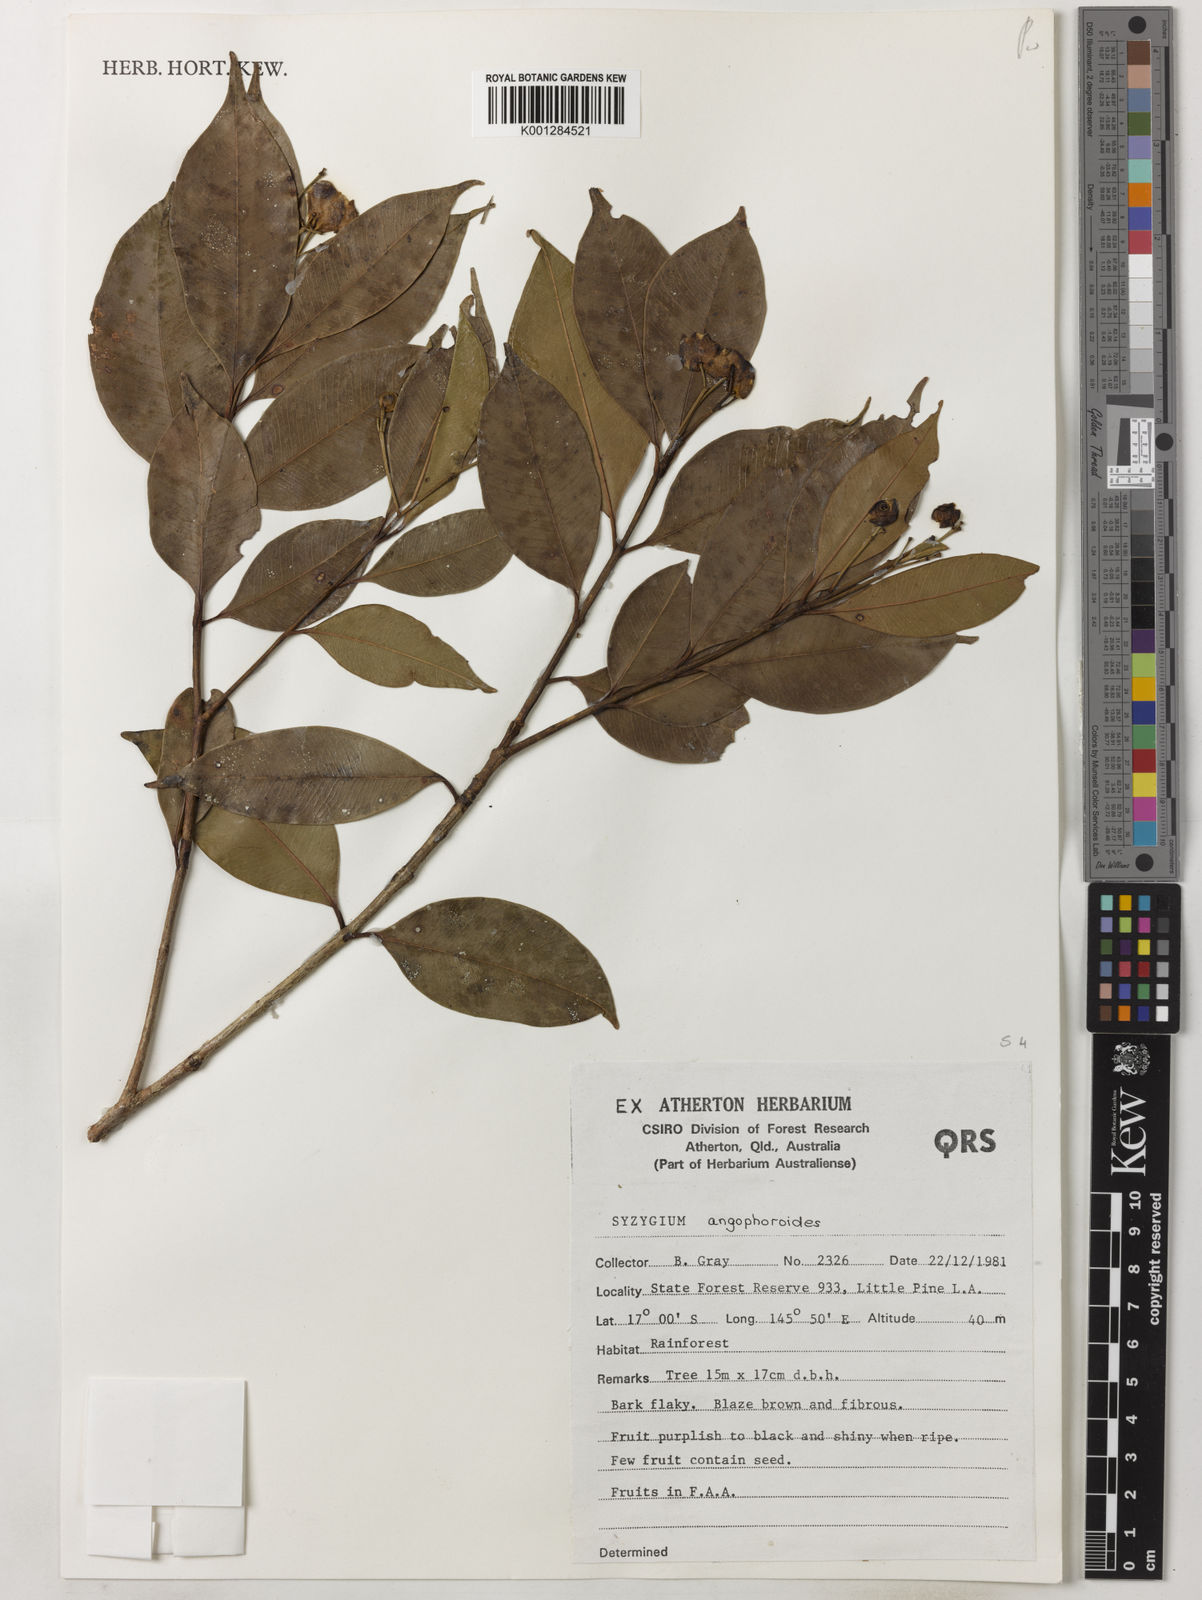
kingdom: Plantae
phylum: Tracheophyta
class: Magnoliopsida
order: Myrtales
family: Myrtaceae
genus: Syzygium
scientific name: Syzygium angophoroides
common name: Swamp satinash
